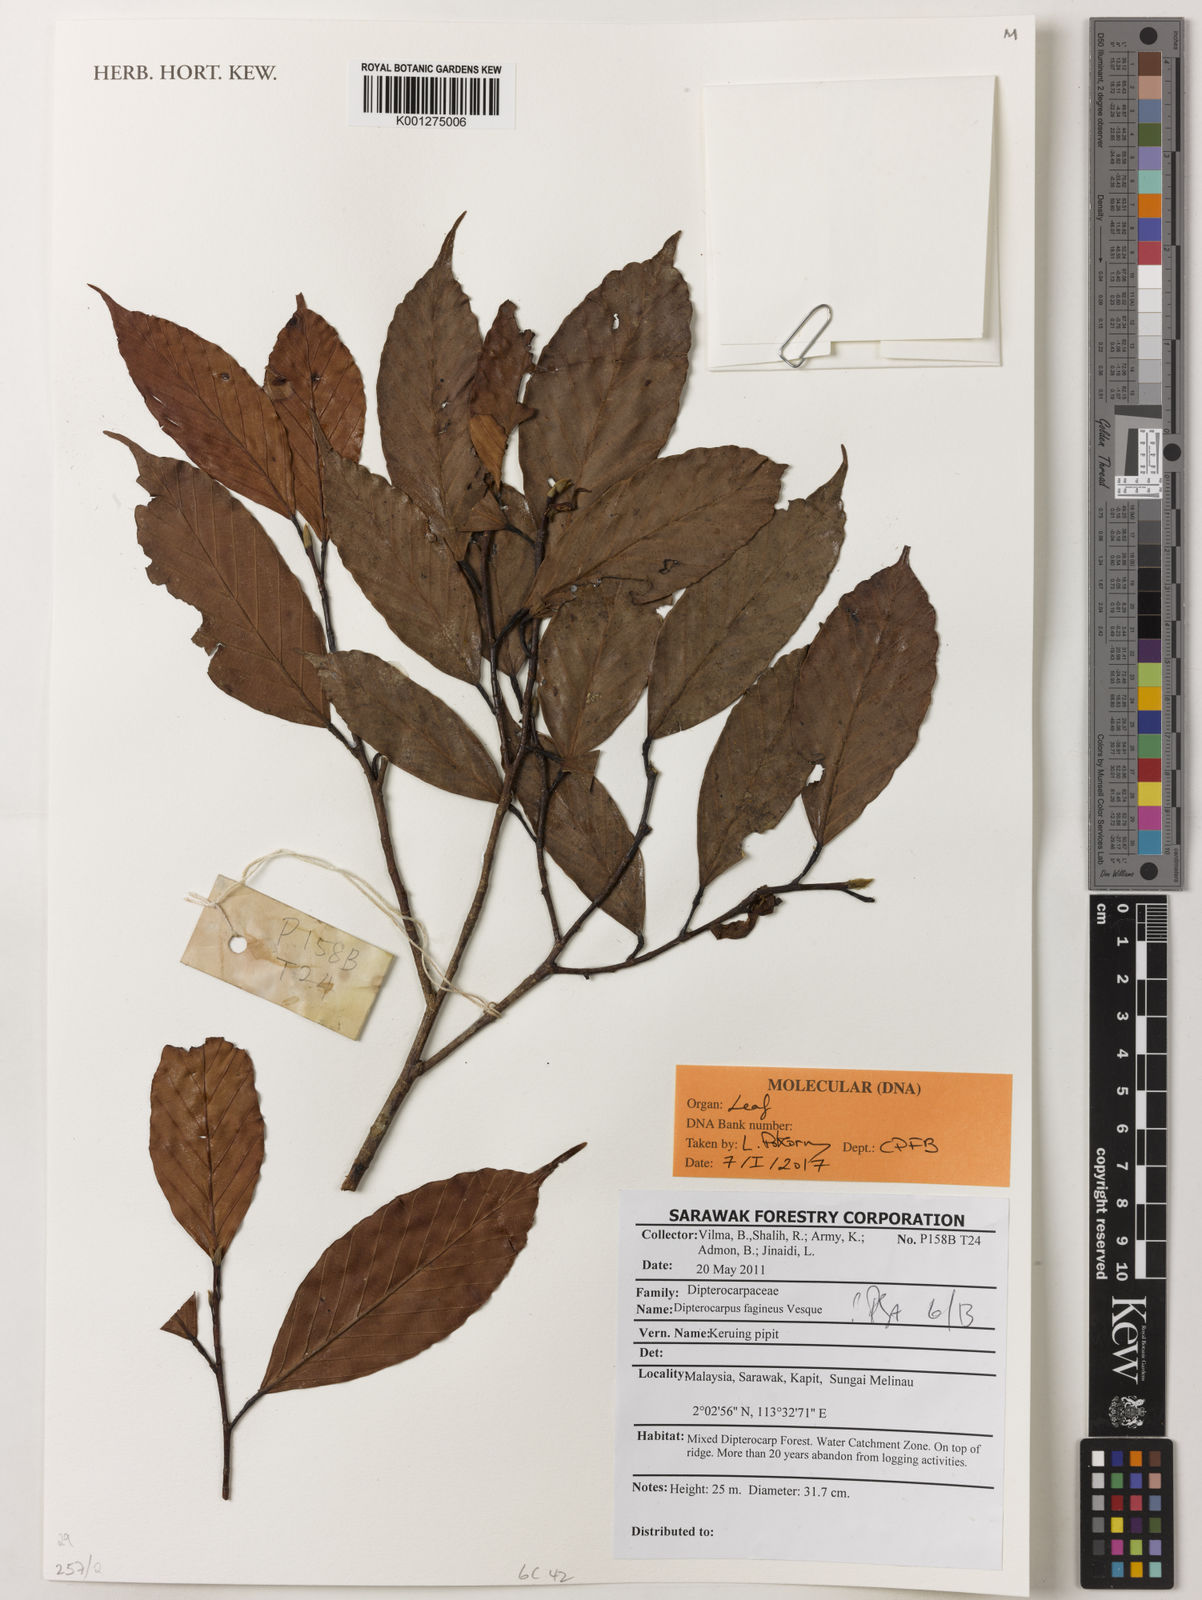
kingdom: Plantae
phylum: Tracheophyta
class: Magnoliopsida
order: Malvales
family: Dipterocarpaceae
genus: Dipterocarpus
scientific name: Dipterocarpus fagineus
